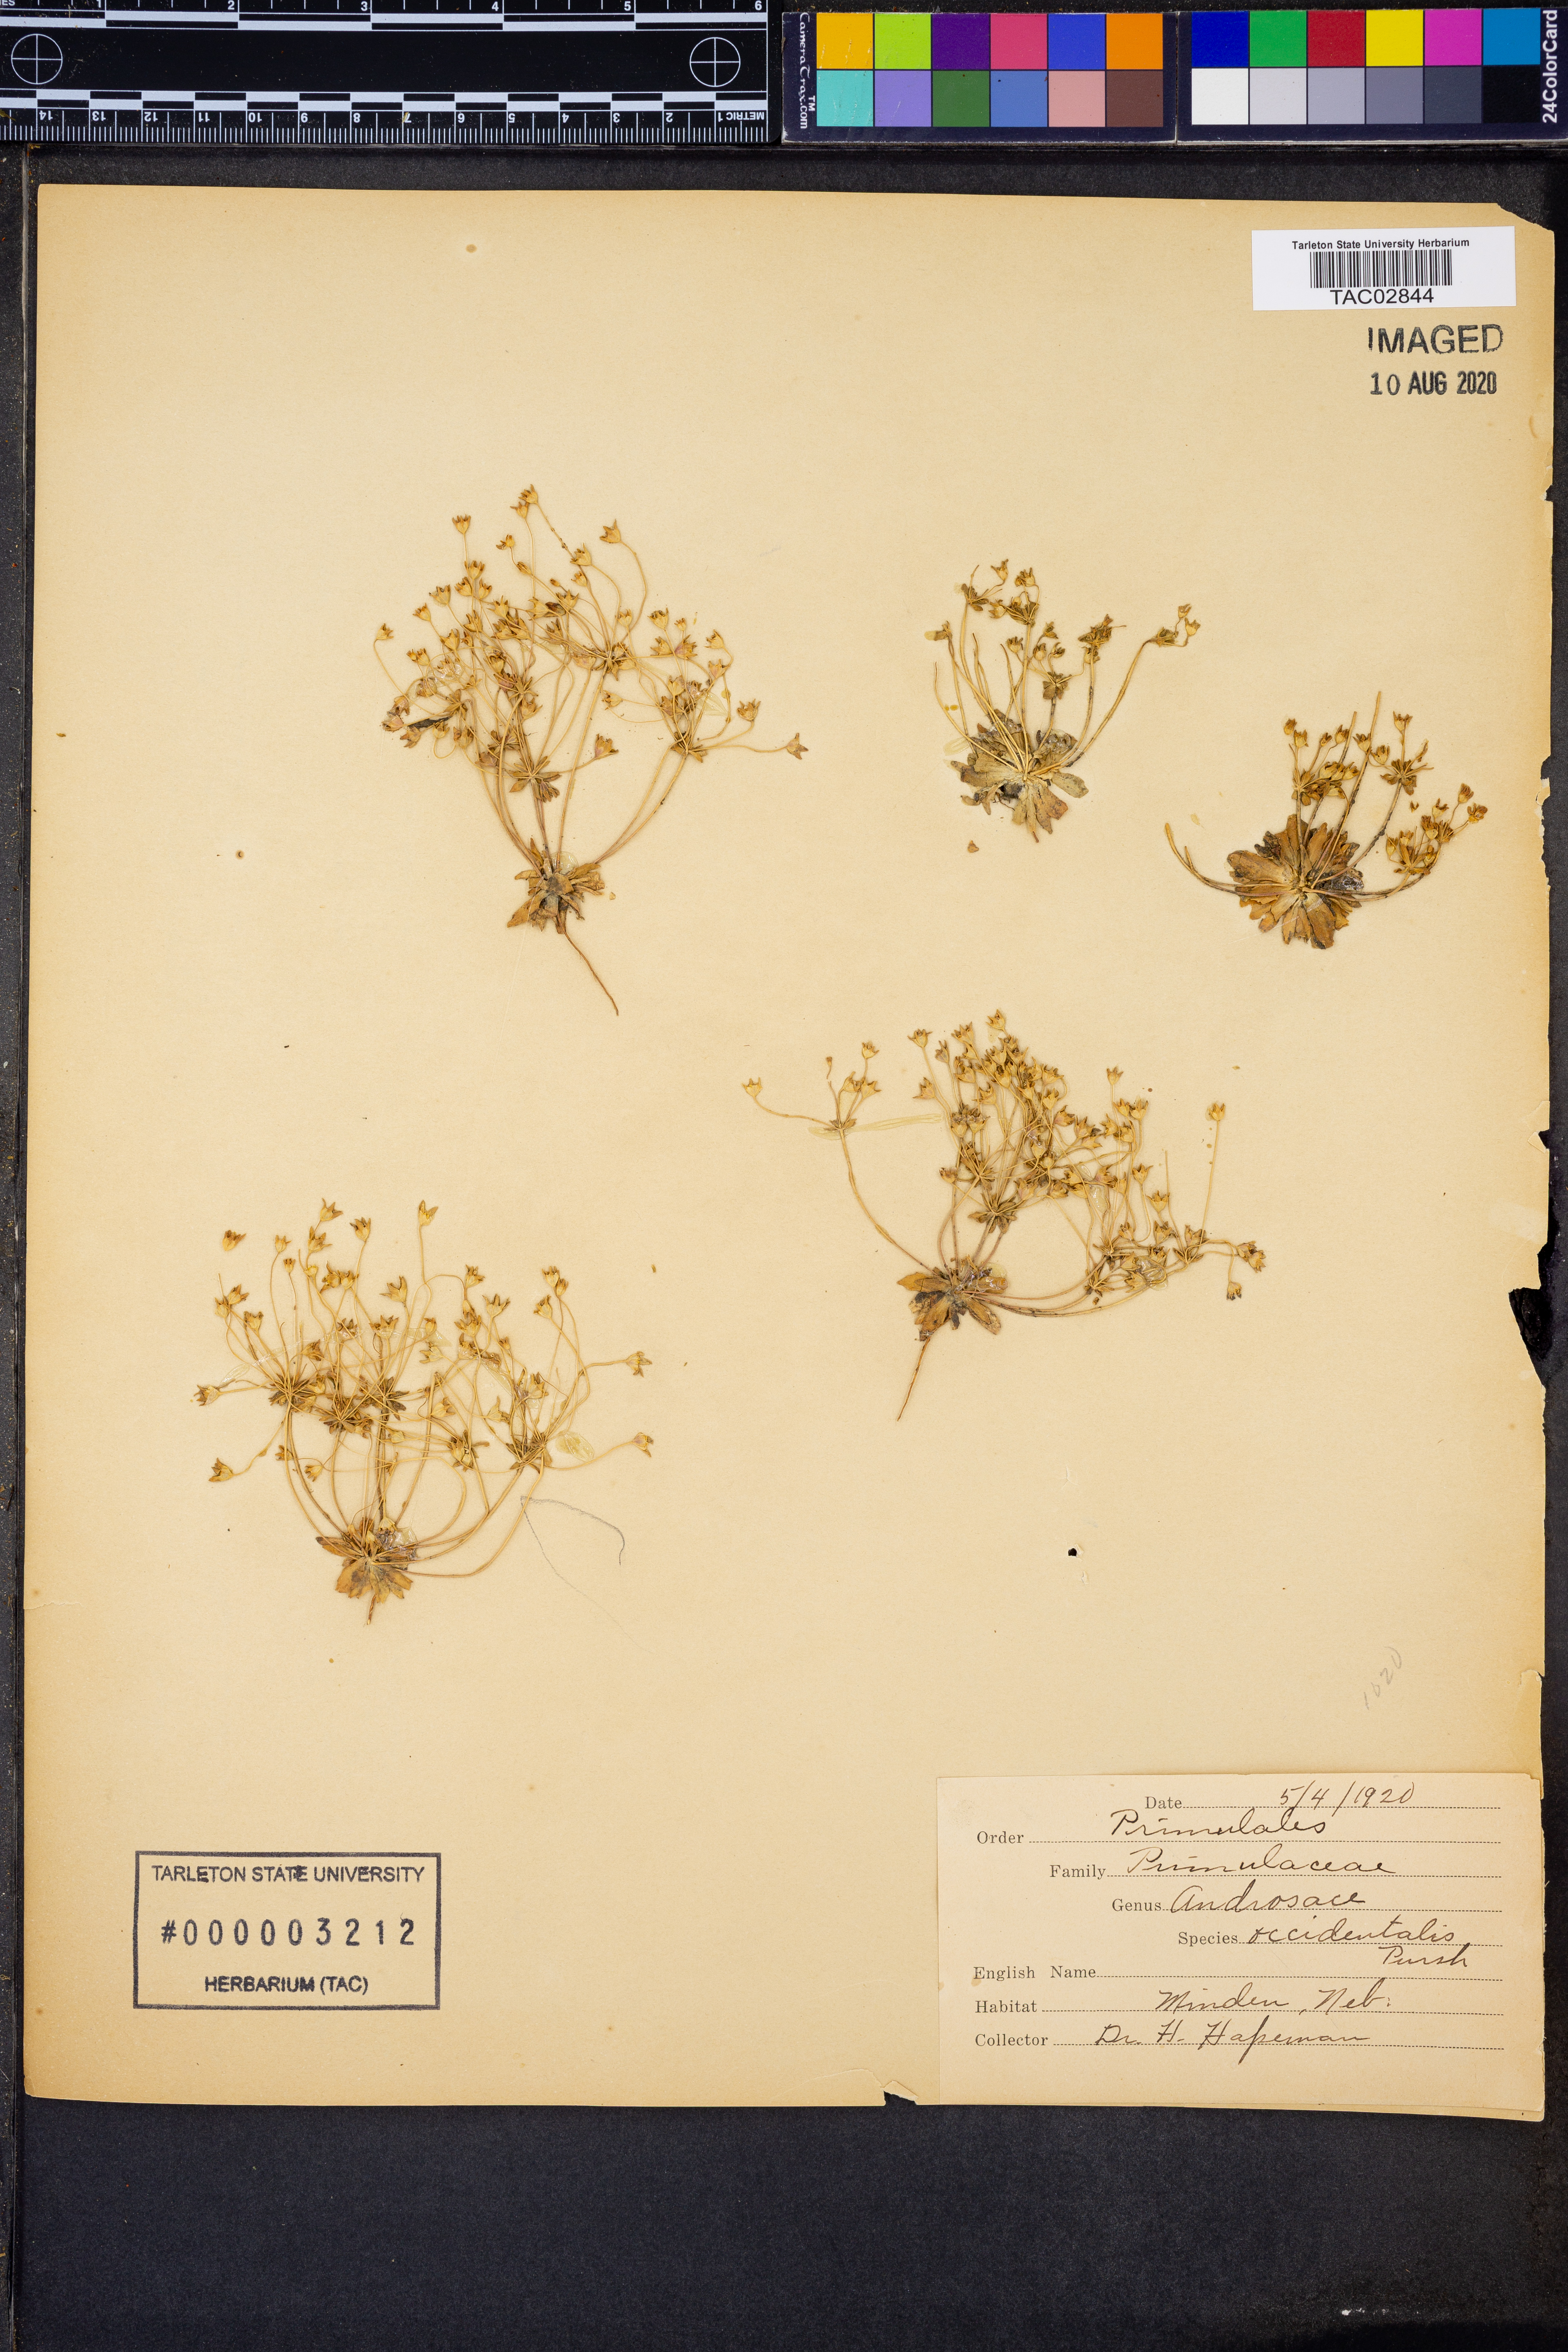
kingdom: Plantae
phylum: Tracheophyta
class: Magnoliopsida
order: Ericales
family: Primulaceae
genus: Androsace
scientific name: Androsace occidentalis
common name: West rock-jasmine
